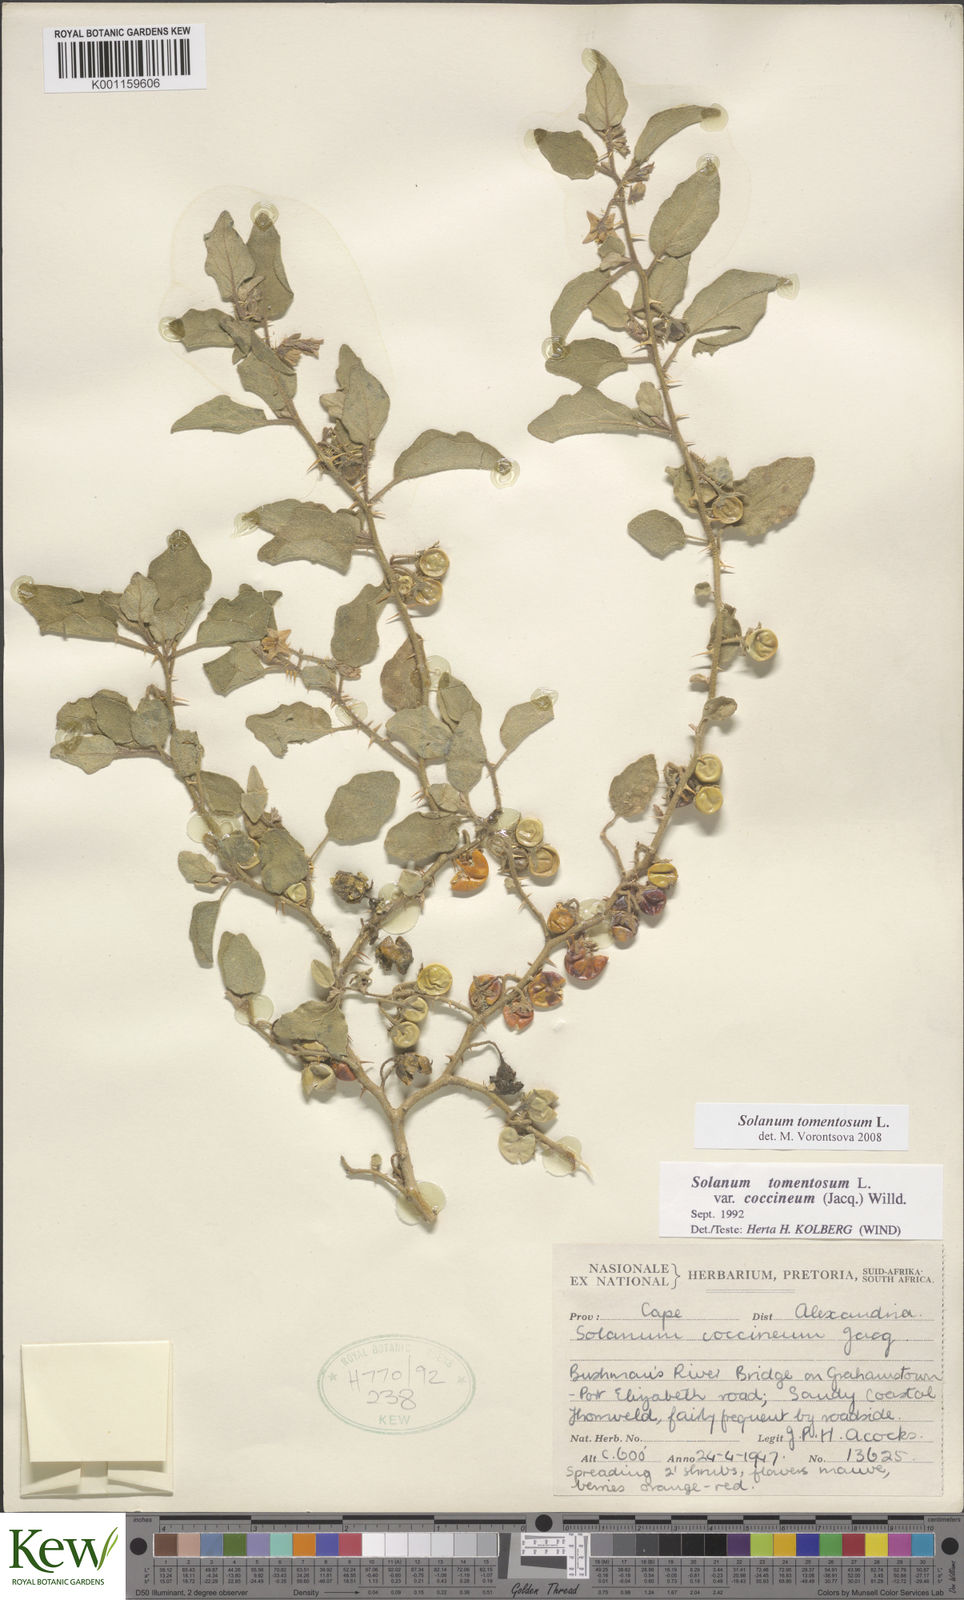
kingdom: Plantae
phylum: Tracheophyta
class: Magnoliopsida
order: Solanales
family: Solanaceae
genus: Solanum
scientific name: Solanum tomentosum
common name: Wild aubergine
